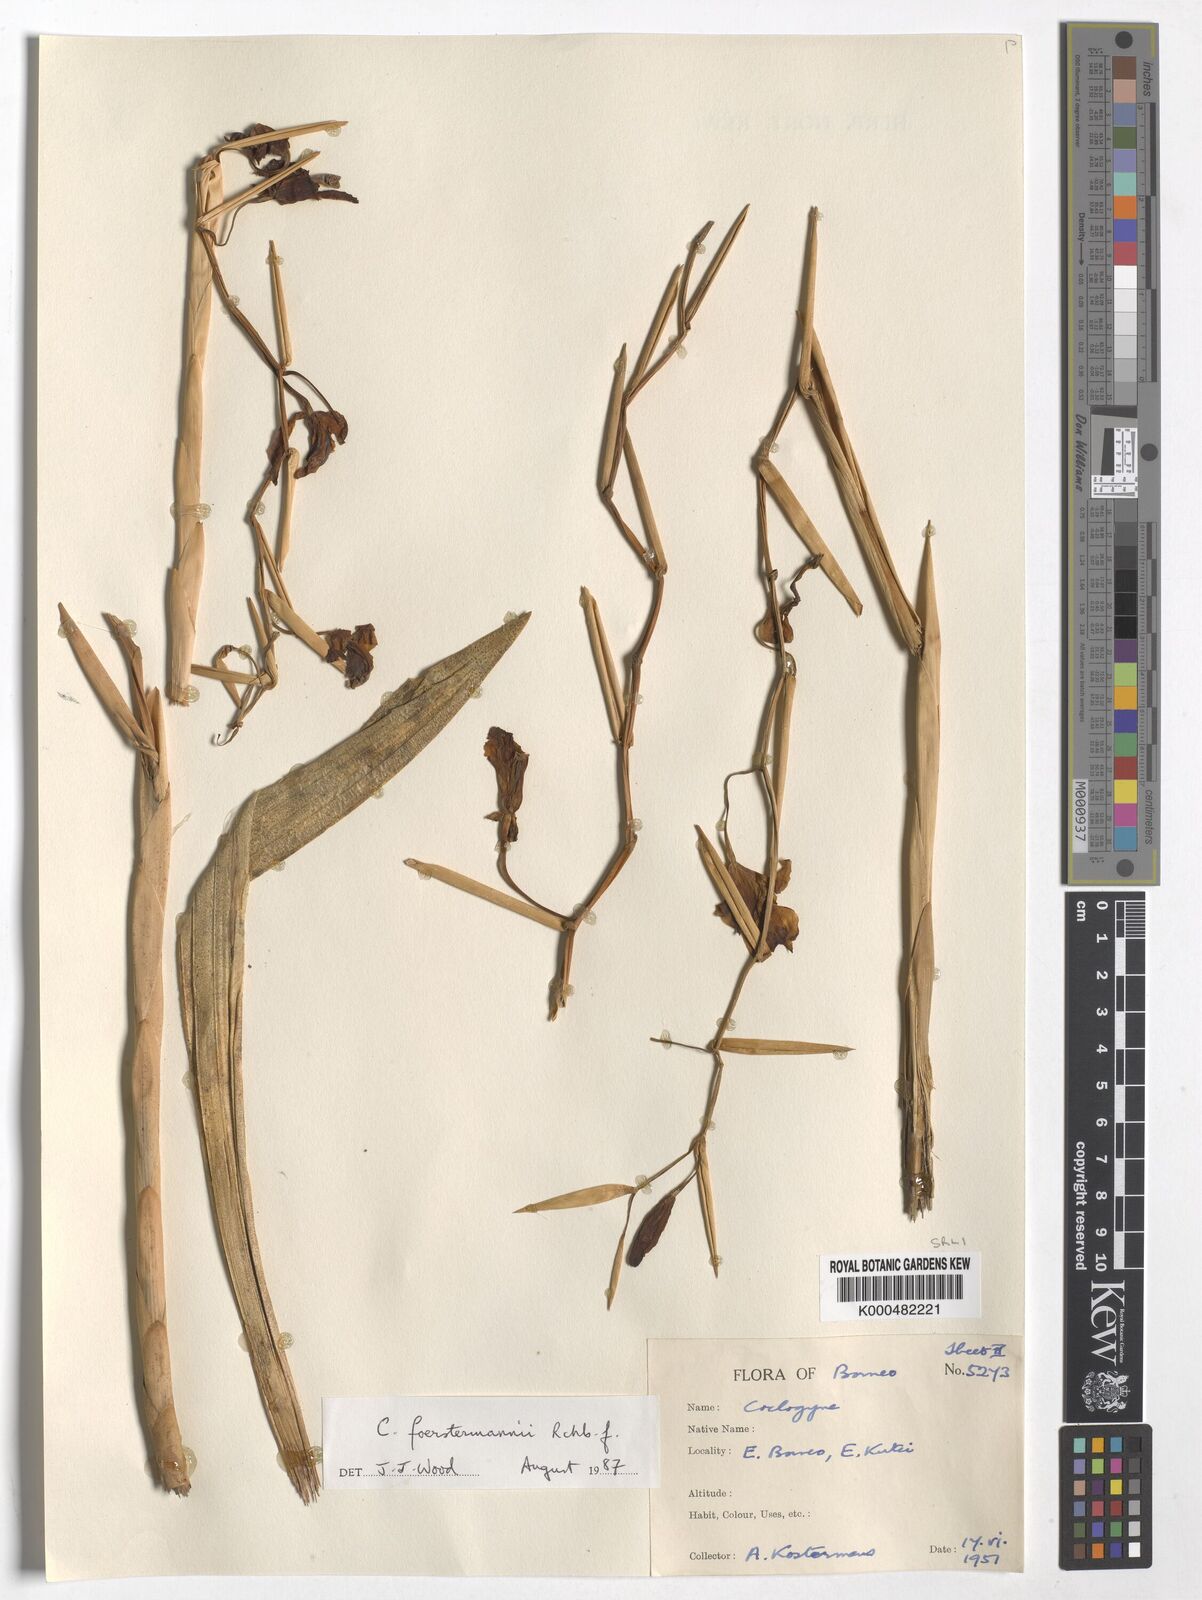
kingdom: Plantae
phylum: Tracheophyta
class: Liliopsida
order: Asparagales
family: Orchidaceae
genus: Coelogyne
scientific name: Coelogyne
